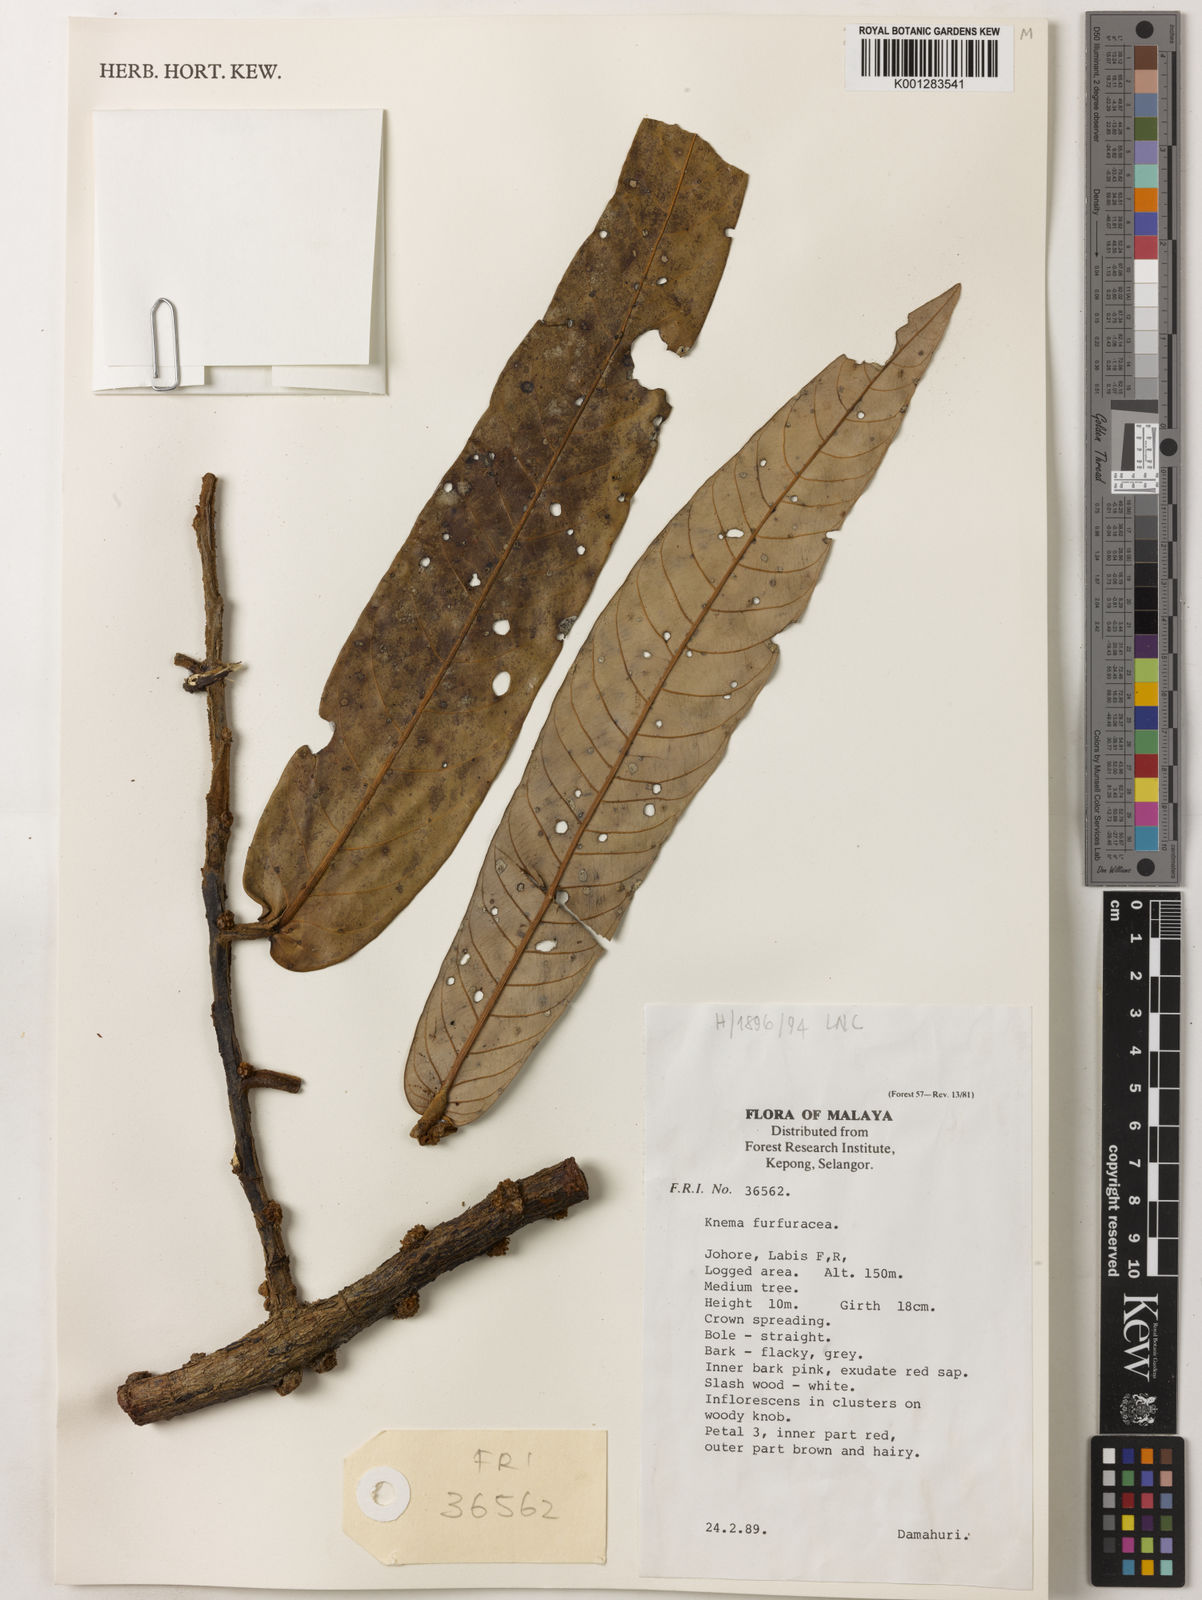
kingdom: Plantae
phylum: Tracheophyta
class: Magnoliopsida
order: Magnoliales
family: Myristicaceae
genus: Knema
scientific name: Knema furfuracea
